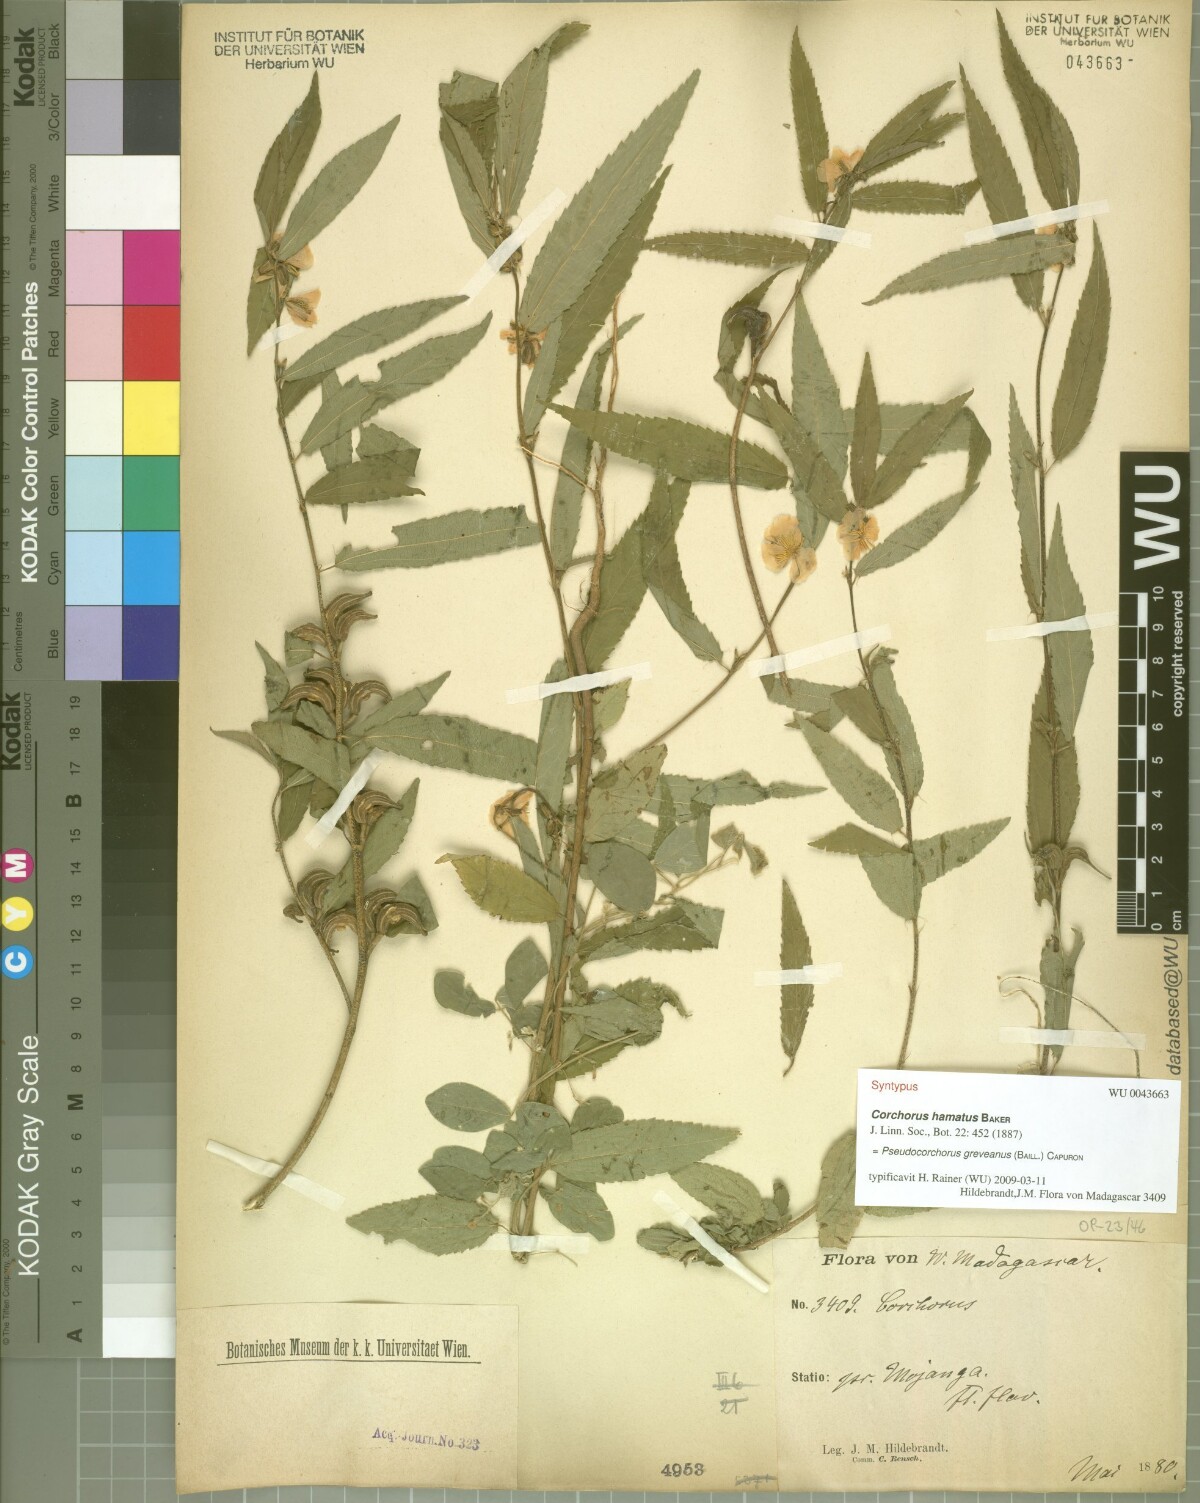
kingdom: Plantae
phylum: Tracheophyta
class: Magnoliopsida
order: Malvales
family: Malvaceae
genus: Pseudocorchorus
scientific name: Pseudocorchorus greveanus
